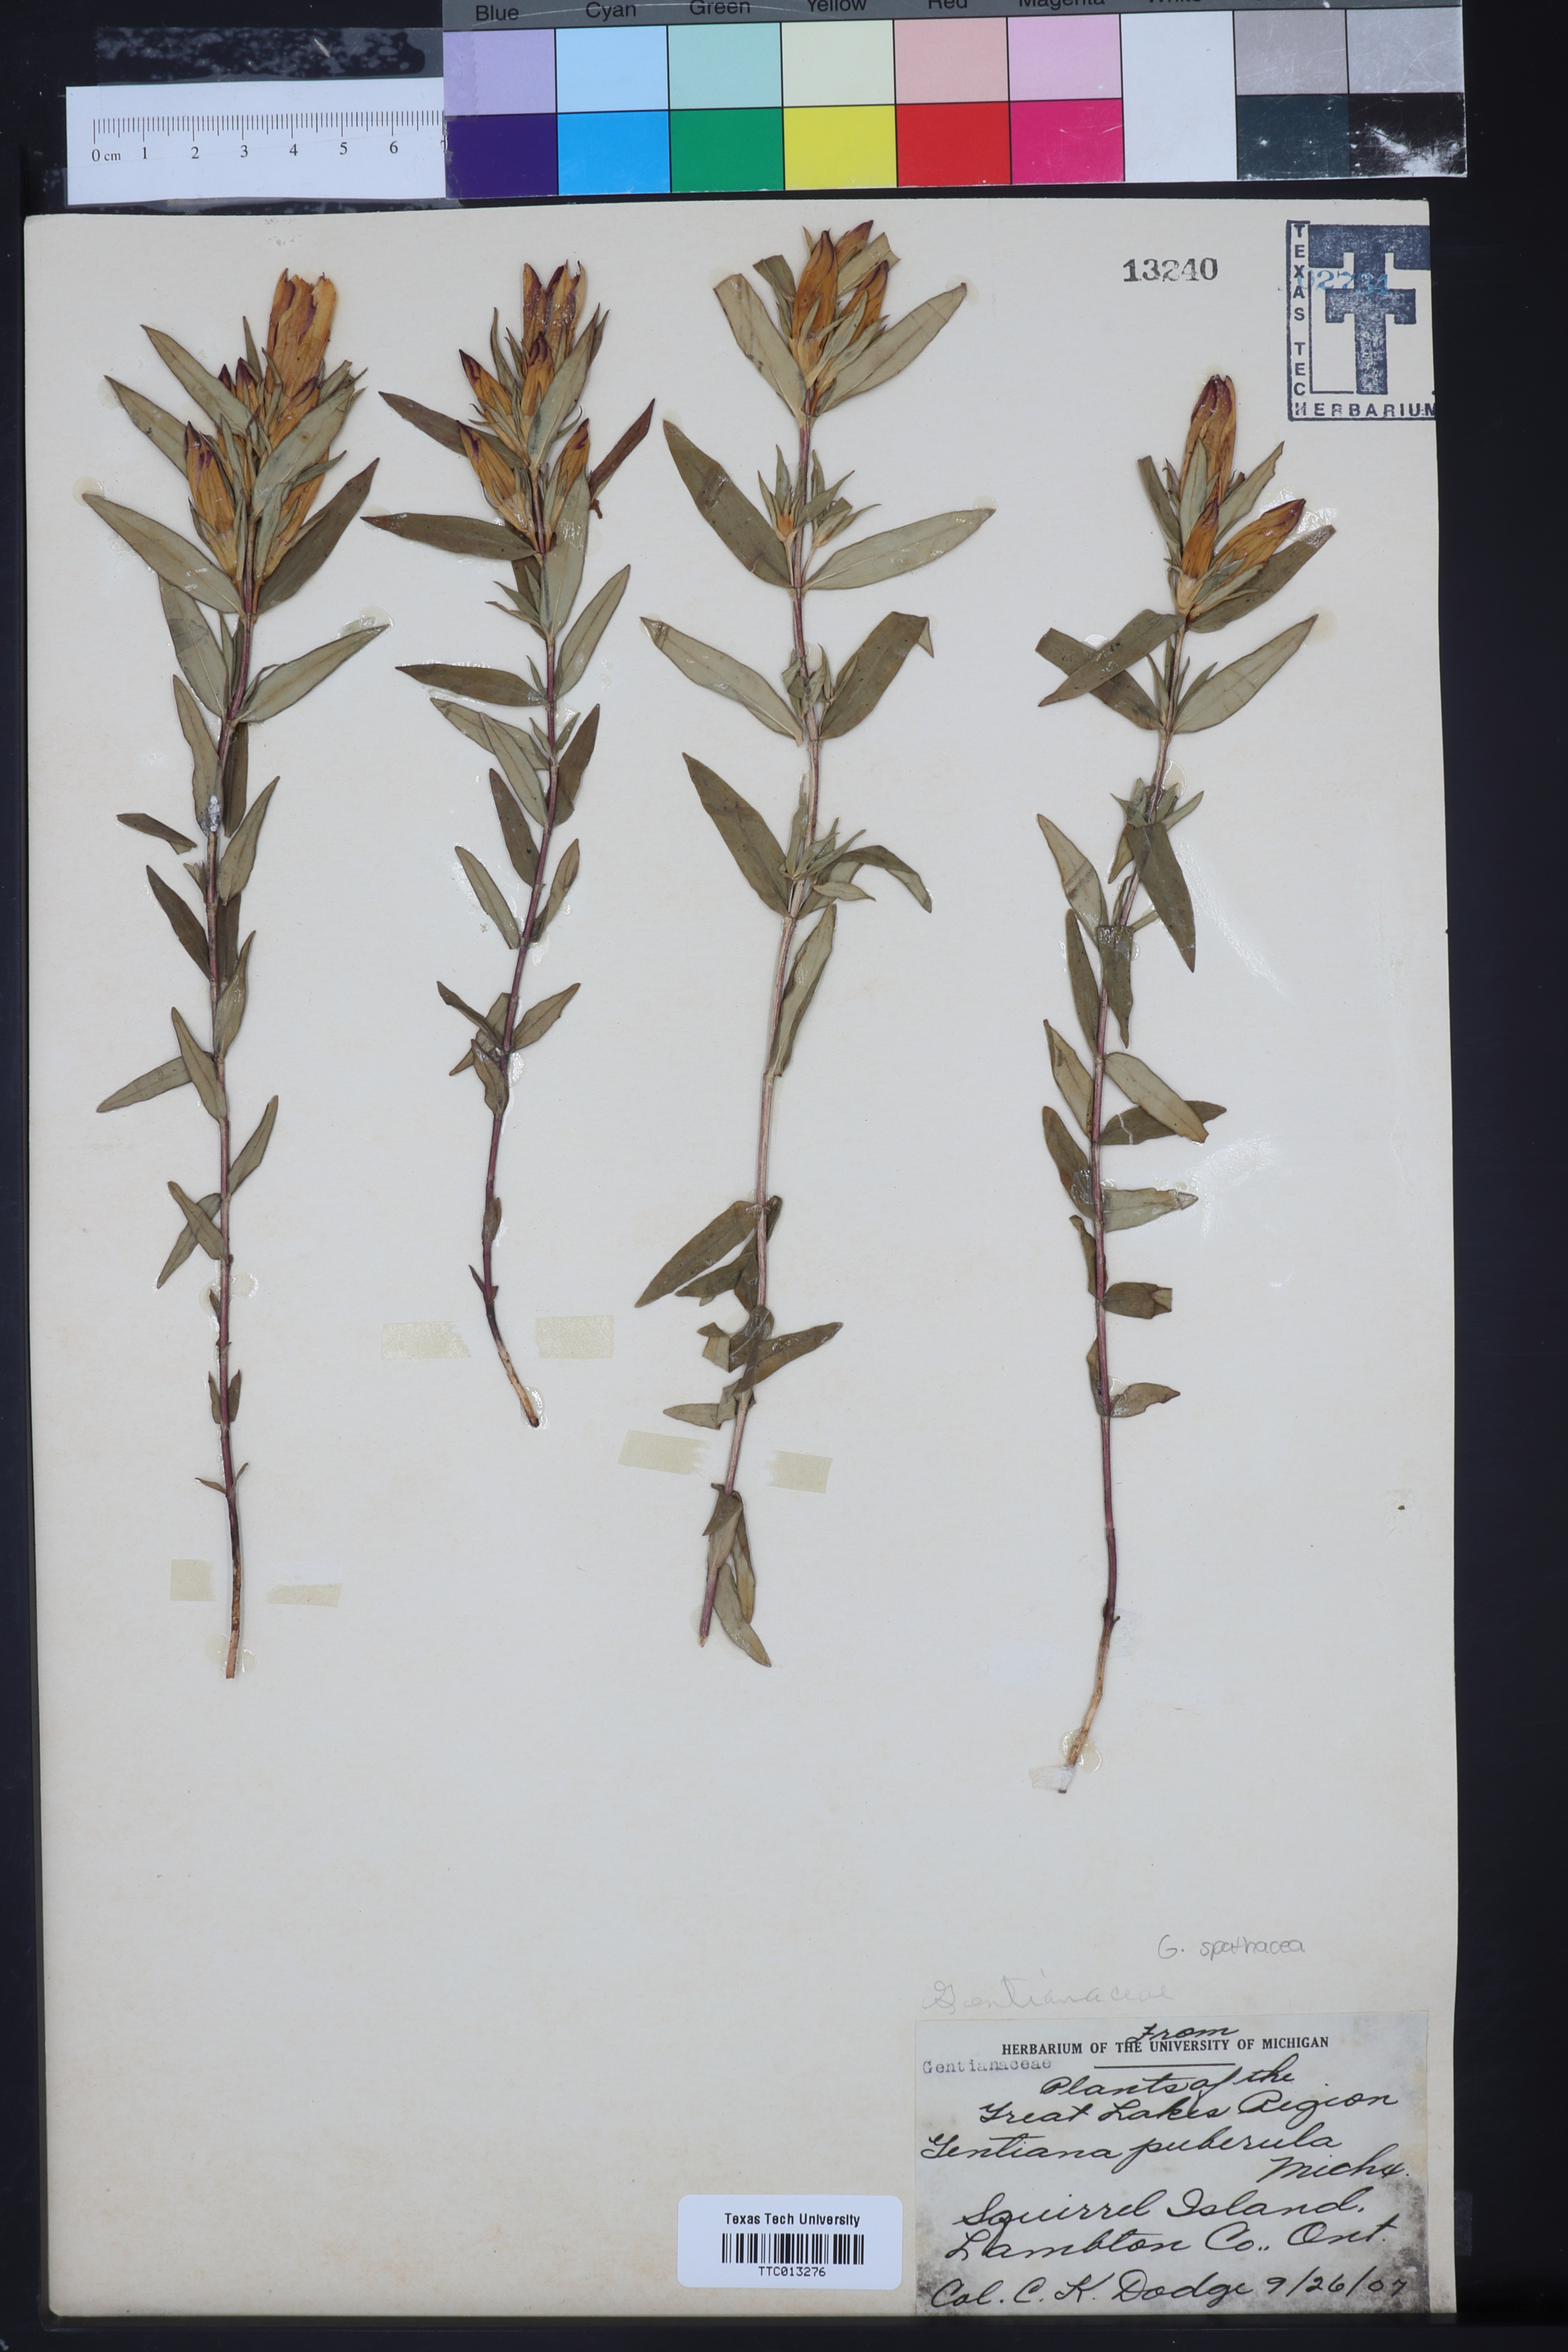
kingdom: Plantae
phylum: Tracheophyta
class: Magnoliopsida
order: Gentianales
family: Gentianaceae
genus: Gentianella
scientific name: Gentianella quinquefolia
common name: Agueweed
